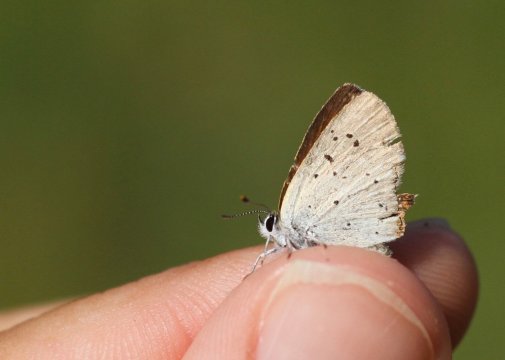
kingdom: Animalia
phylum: Arthropoda
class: Insecta
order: Lepidoptera
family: Sesiidae
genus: Sesia
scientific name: Sesia Lycaena epixanthe
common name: Bog Copper
